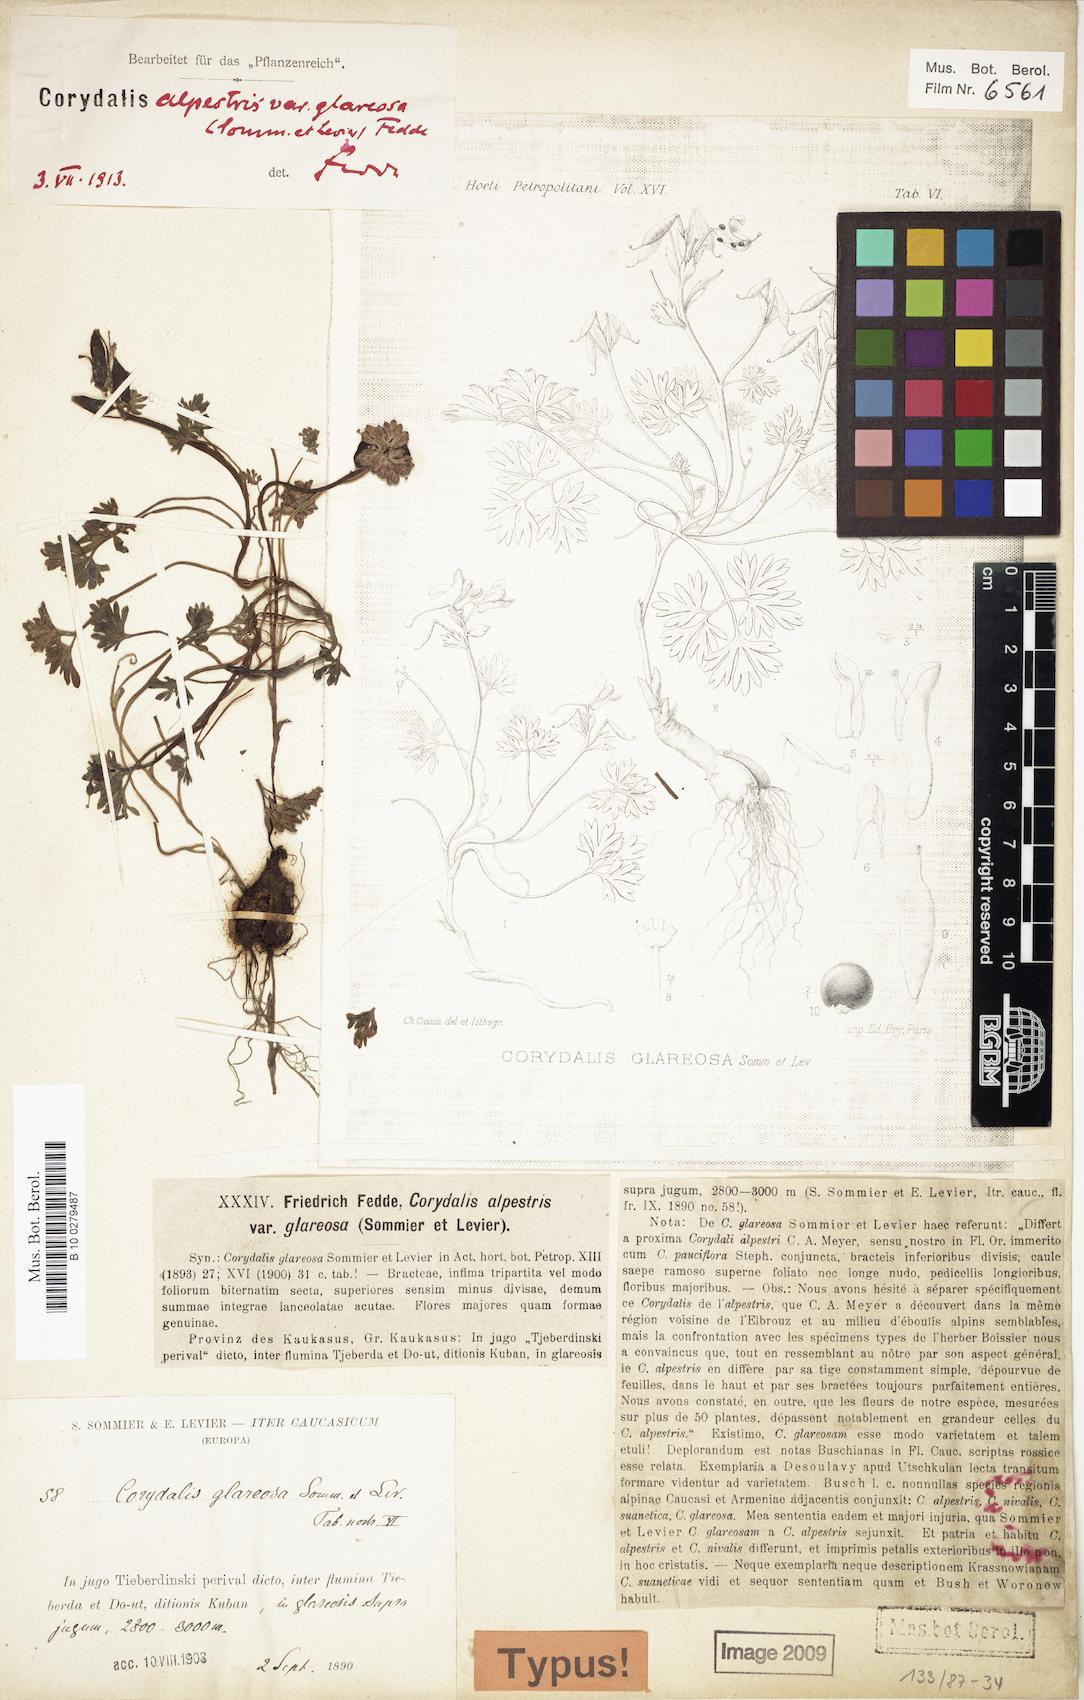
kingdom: Plantae
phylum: Tracheophyta
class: Magnoliopsida
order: Ranunculales
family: Papaveraceae
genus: Corydalis
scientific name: Corydalis alpestris
